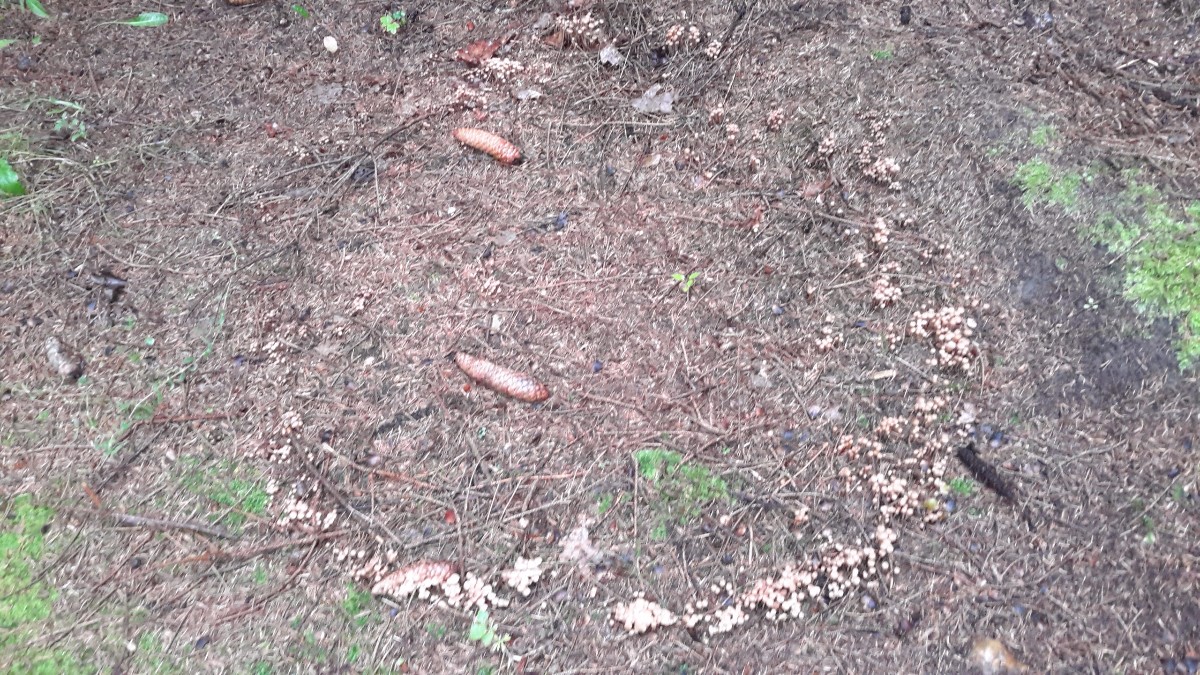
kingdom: Fungi
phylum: Basidiomycota
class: Agaricomycetes
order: Agaricales
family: Omphalotaceae
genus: Collybiopsis
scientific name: Collybiopsis confluens
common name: knippe-fladhat
